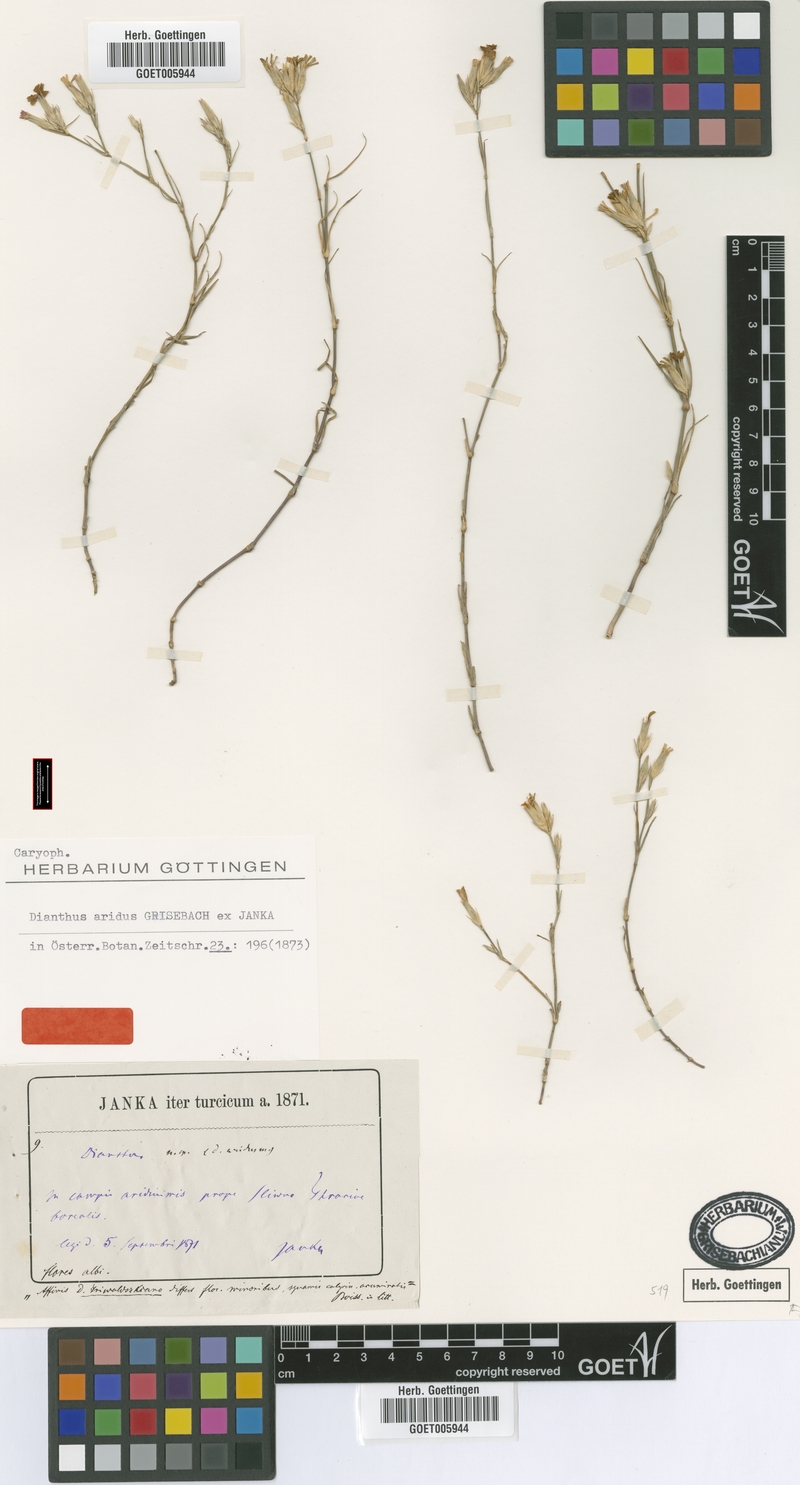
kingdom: Plantae
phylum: Tracheophyta
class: Magnoliopsida
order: Caryophyllales
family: Caryophyllaceae
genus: Dianthus
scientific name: Dianthus pallens
